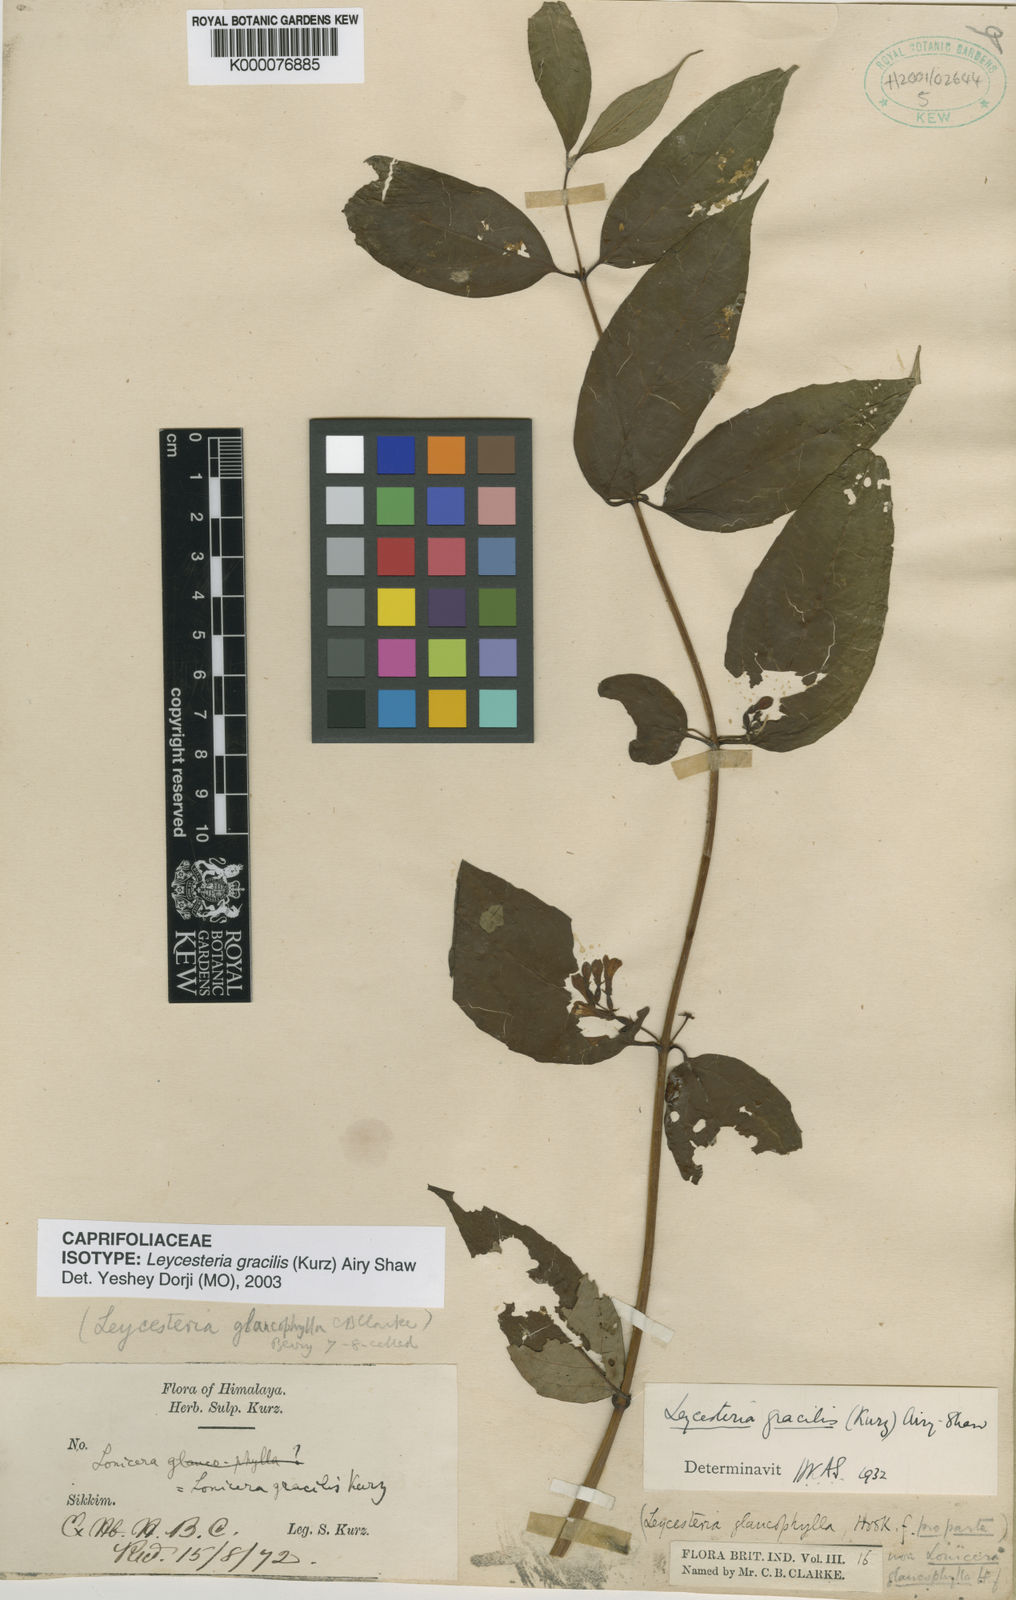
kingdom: Plantae
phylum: Tracheophyta
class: Magnoliopsida
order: Dipsacales
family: Caprifoliaceae
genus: Leycesteria
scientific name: Leycesteria gracilis
